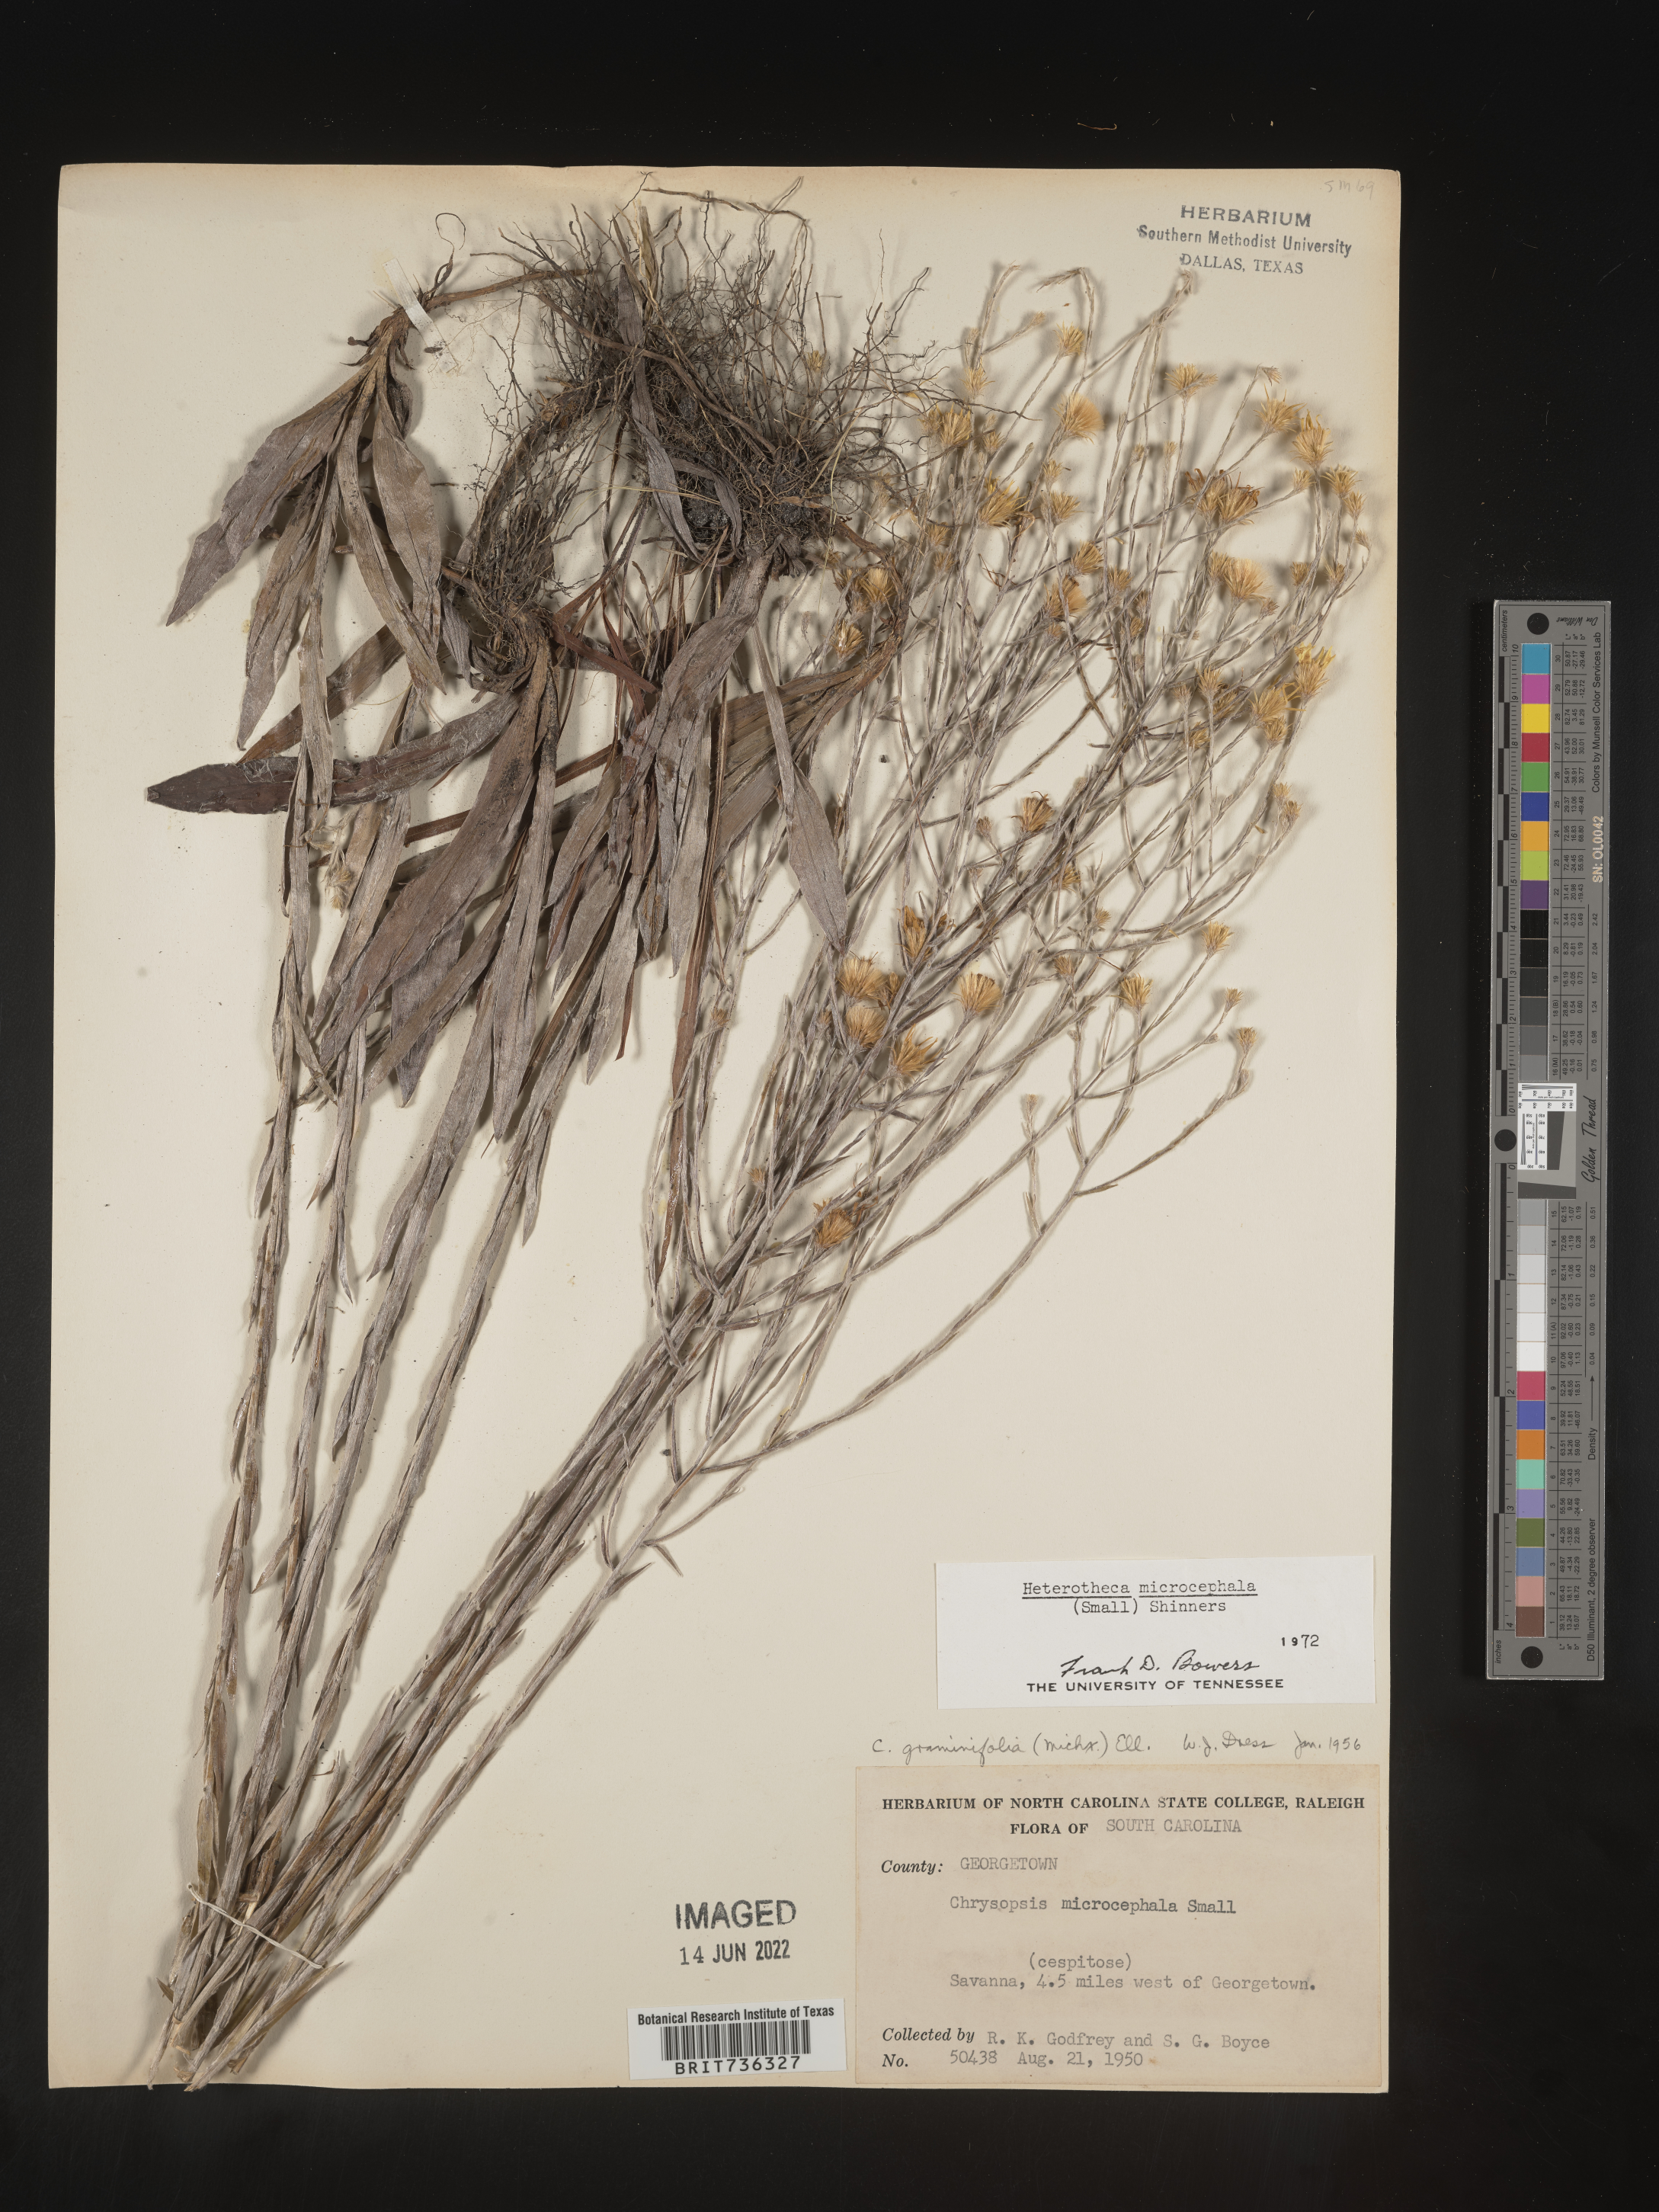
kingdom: Plantae
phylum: Tracheophyta
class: Magnoliopsida
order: Asterales
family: Asteraceae
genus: Pityopsis
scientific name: Pityopsis microcephala
